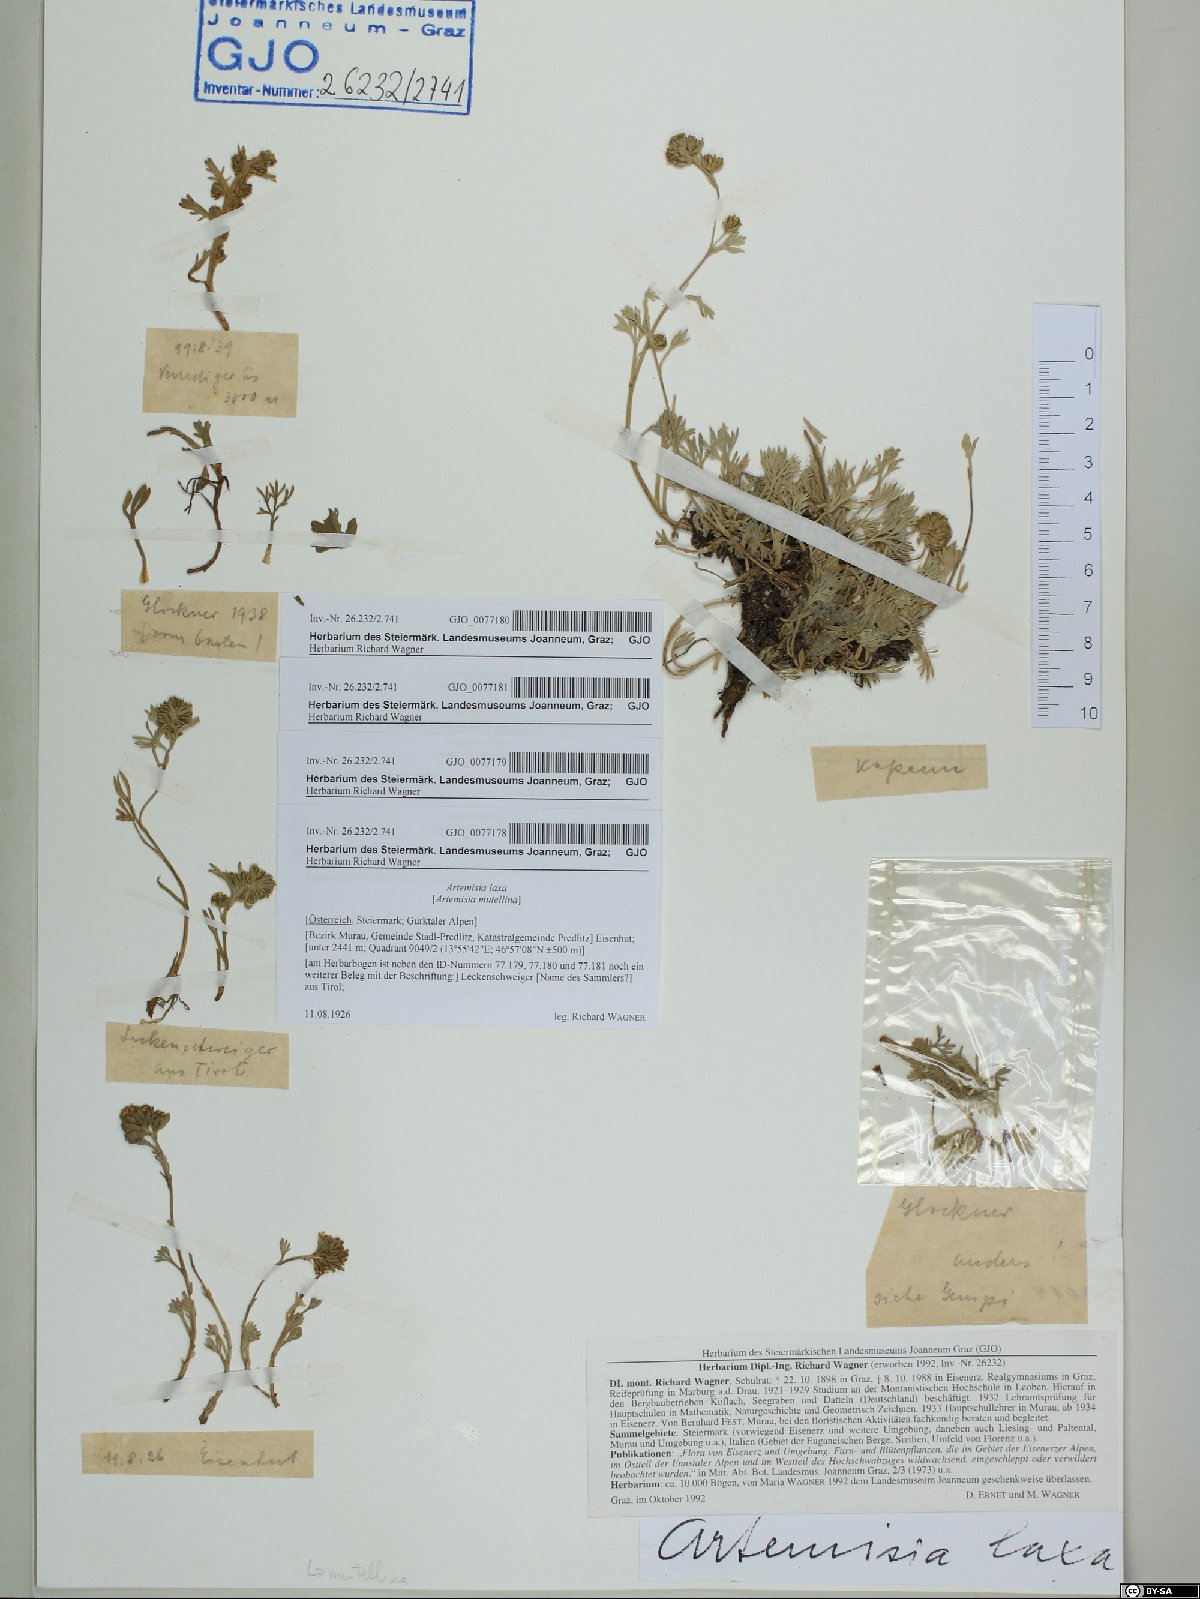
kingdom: Plantae
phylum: Tracheophyta
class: Magnoliopsida
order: Asterales
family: Asteraceae
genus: Artemisia
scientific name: Artemisia mutellina
